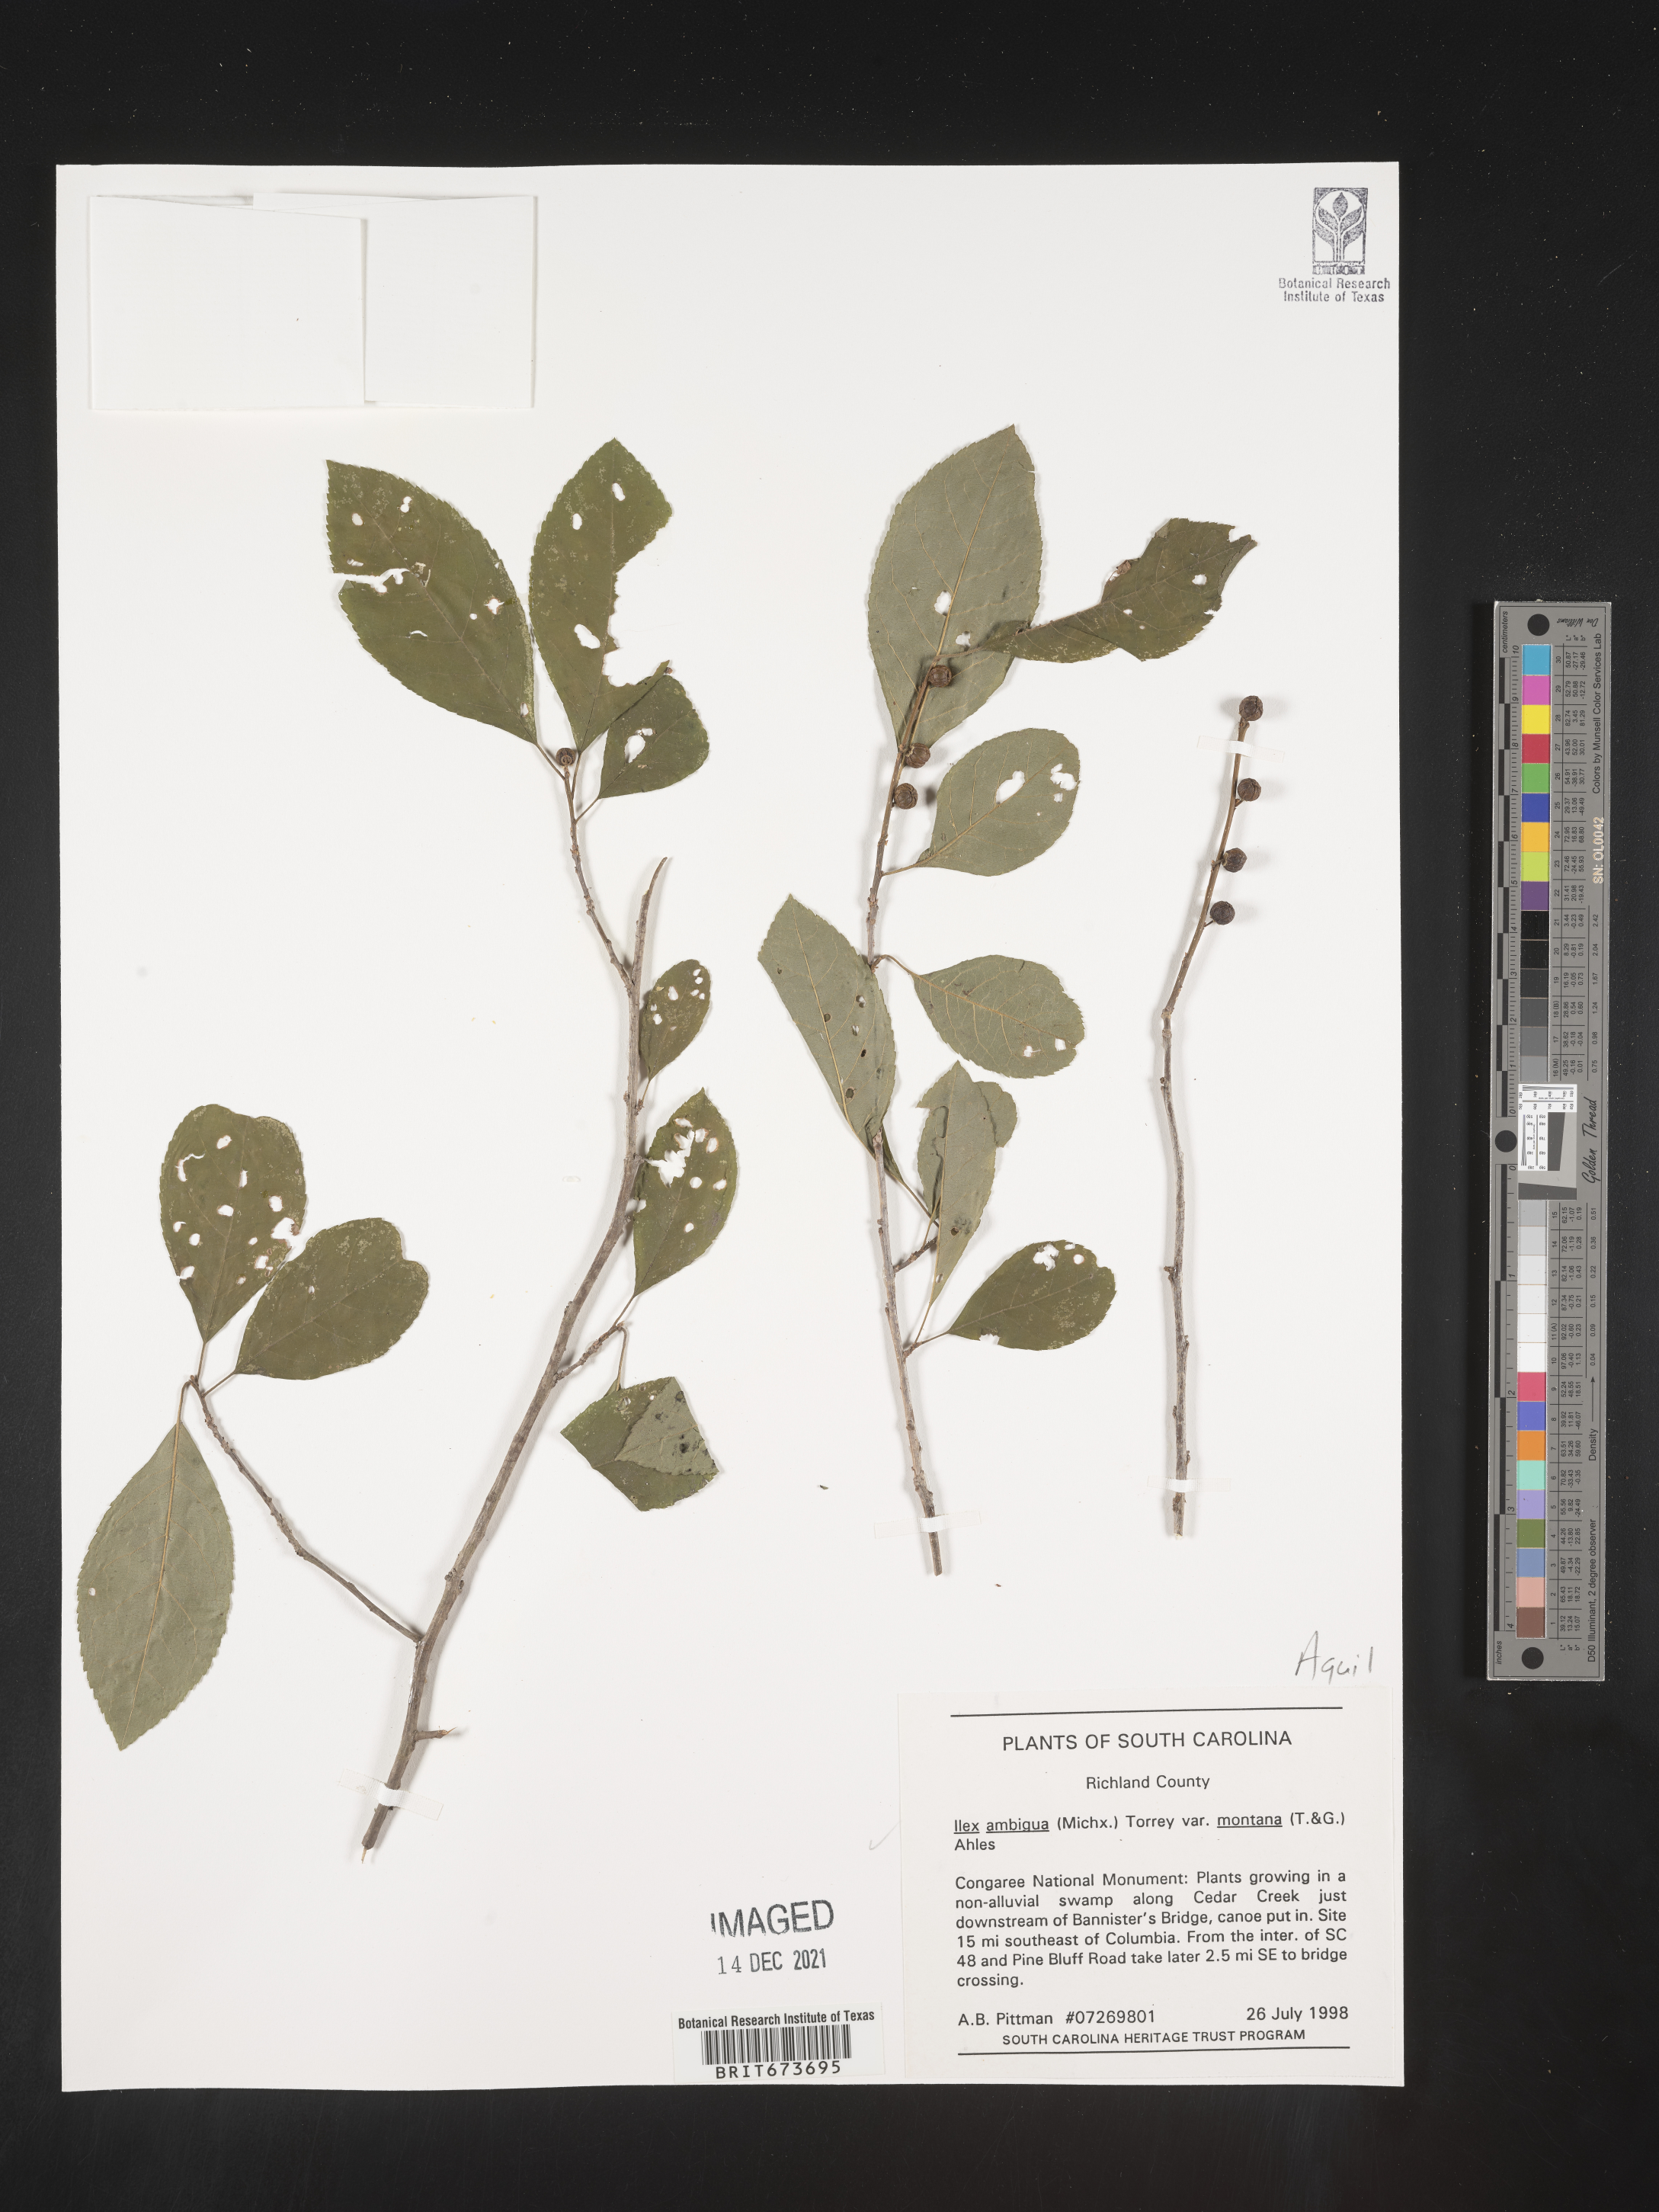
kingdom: Plantae
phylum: Tracheophyta
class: Magnoliopsida
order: Aquifoliales
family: Aquifoliaceae
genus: Ilex
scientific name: Ilex ambigua
